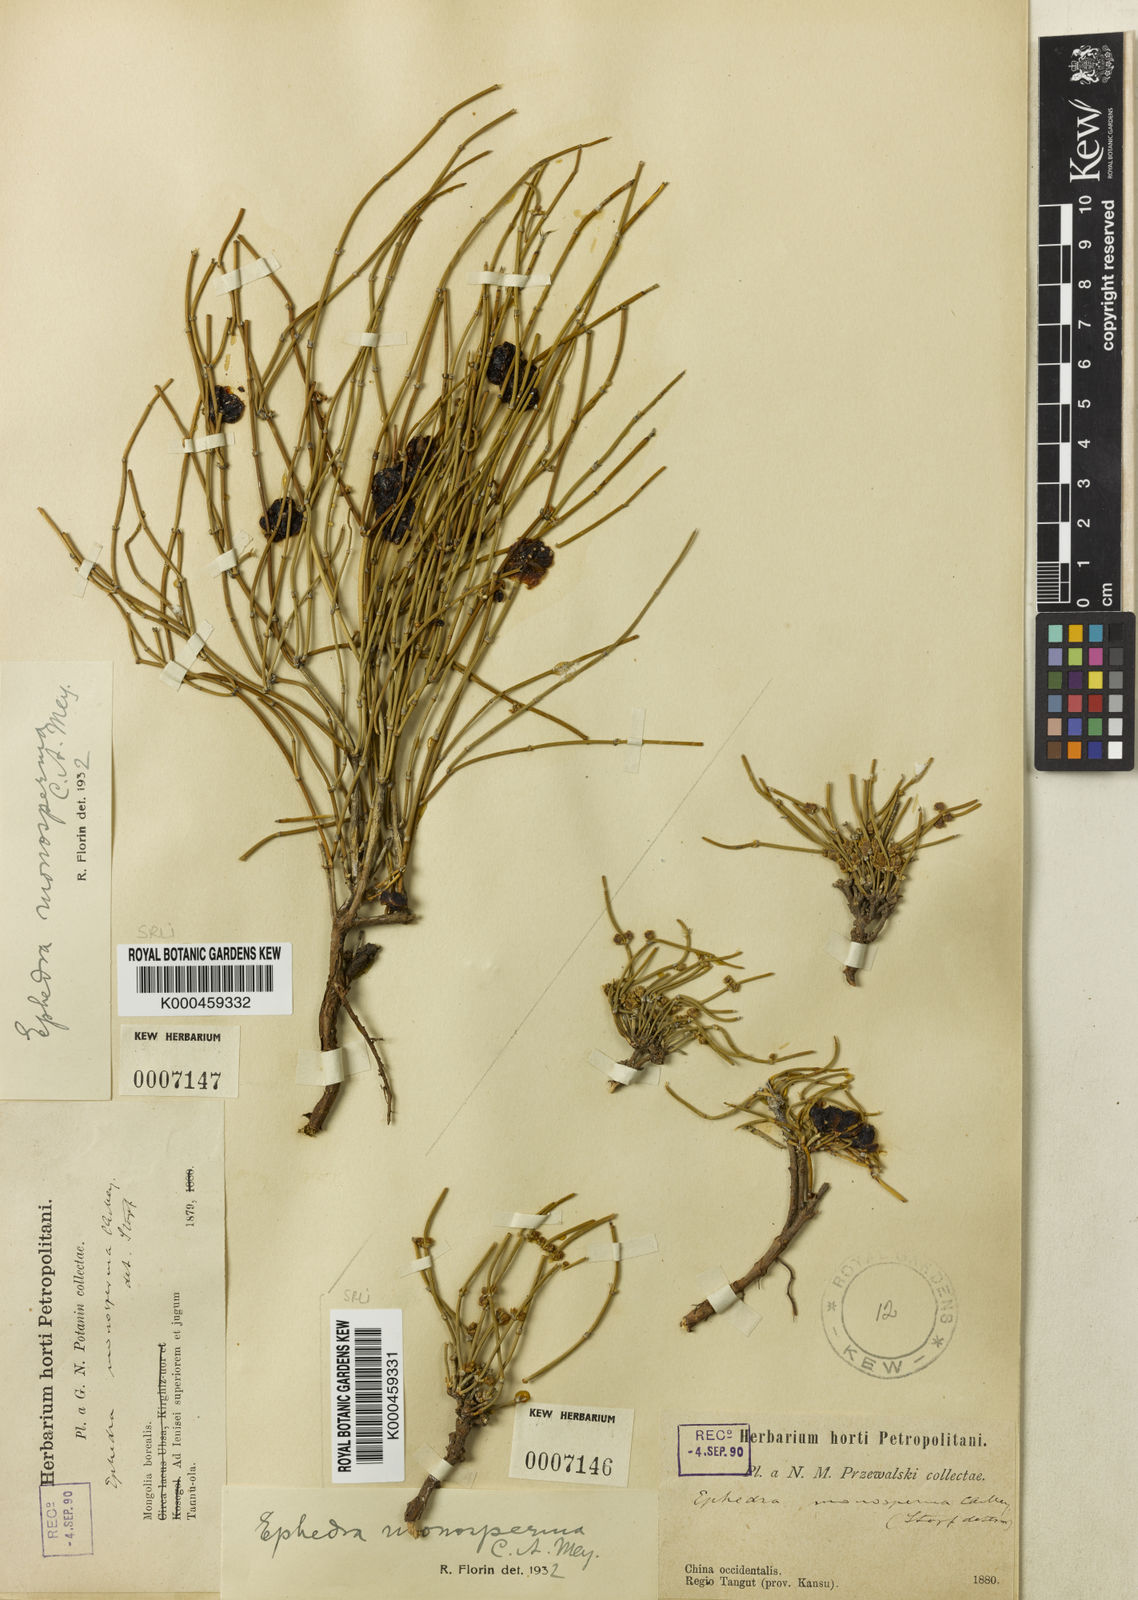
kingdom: Plantae
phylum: Tracheophyta
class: Gnetopsida
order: Ephedrales
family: Ephedraceae
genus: Ephedra
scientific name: Ephedra monosperma
